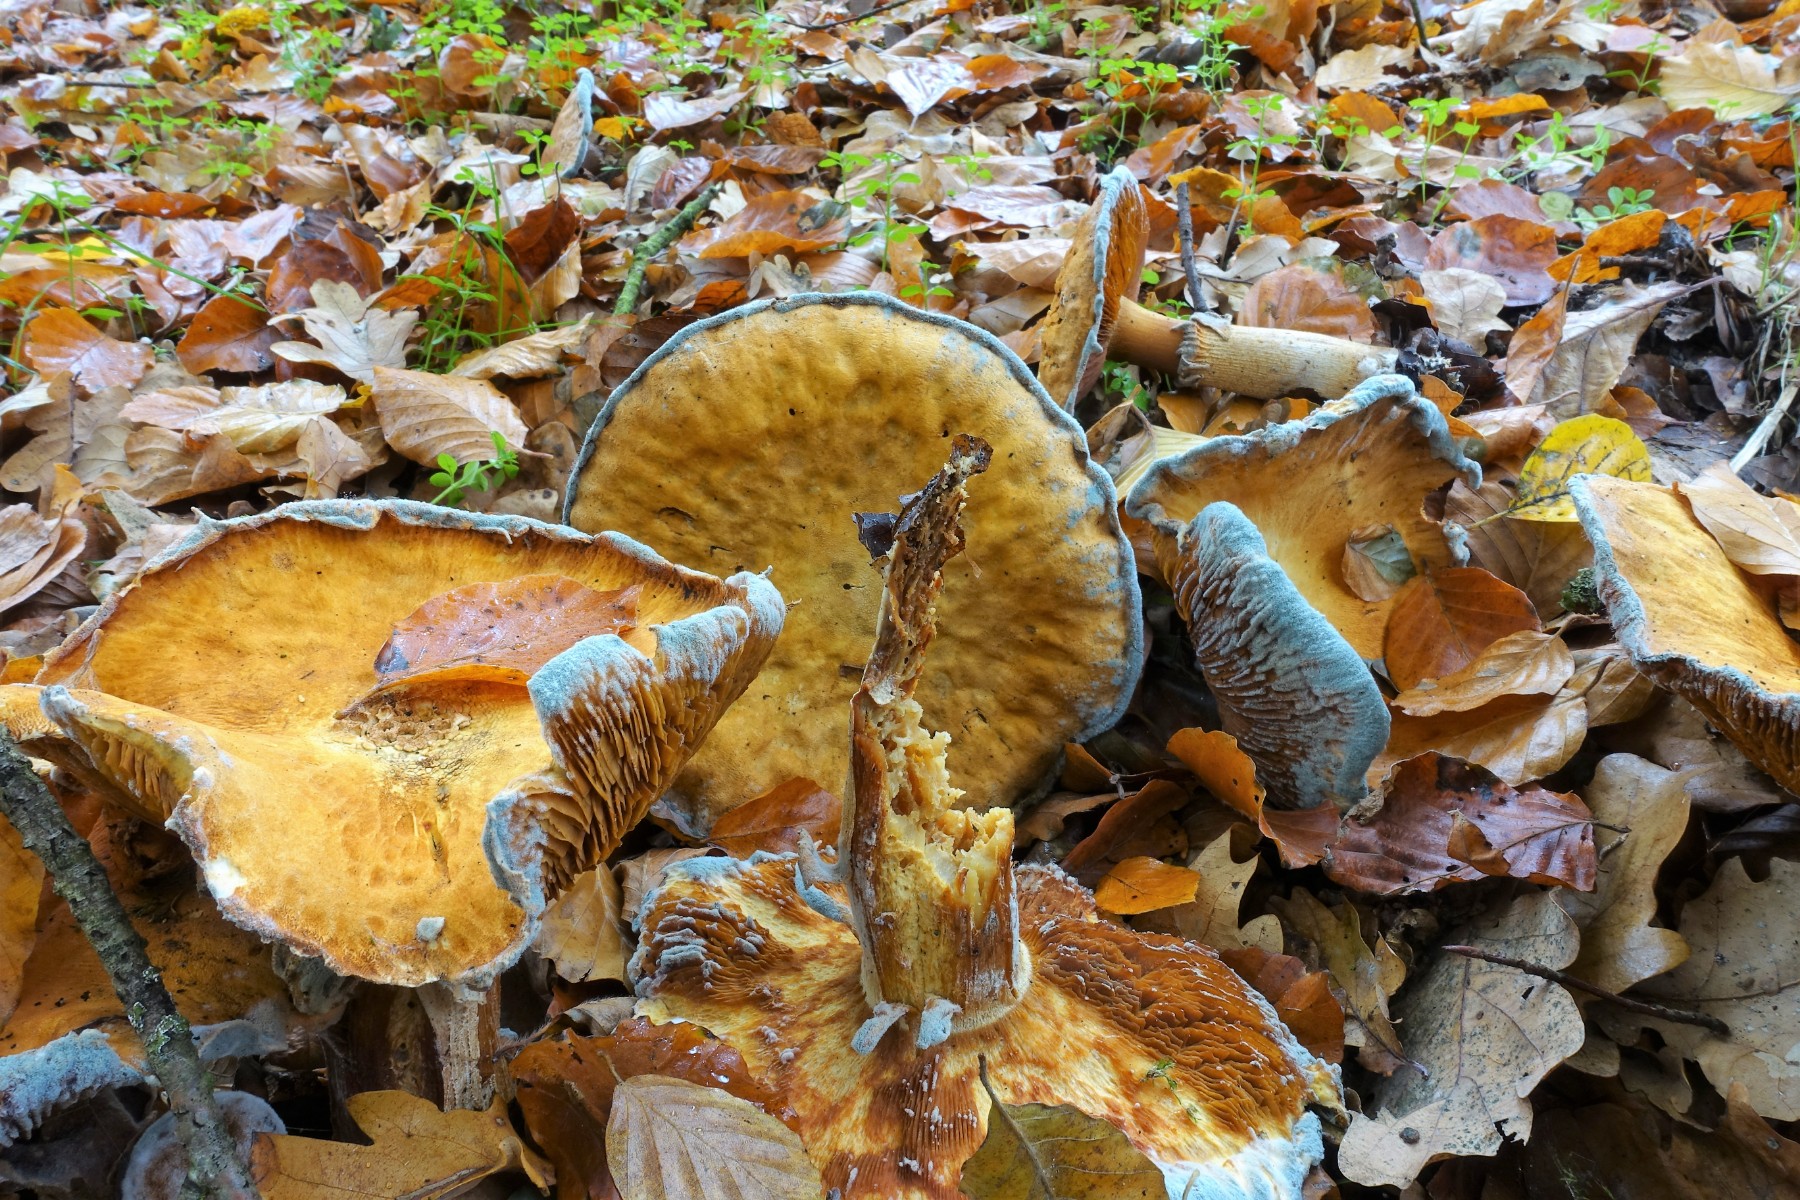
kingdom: Fungi
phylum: Basidiomycota
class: Agaricomycetes
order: Agaricales
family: Tricholomataceae
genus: Phaeolepiota
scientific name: Phaeolepiota aurea
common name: gyldenhat
